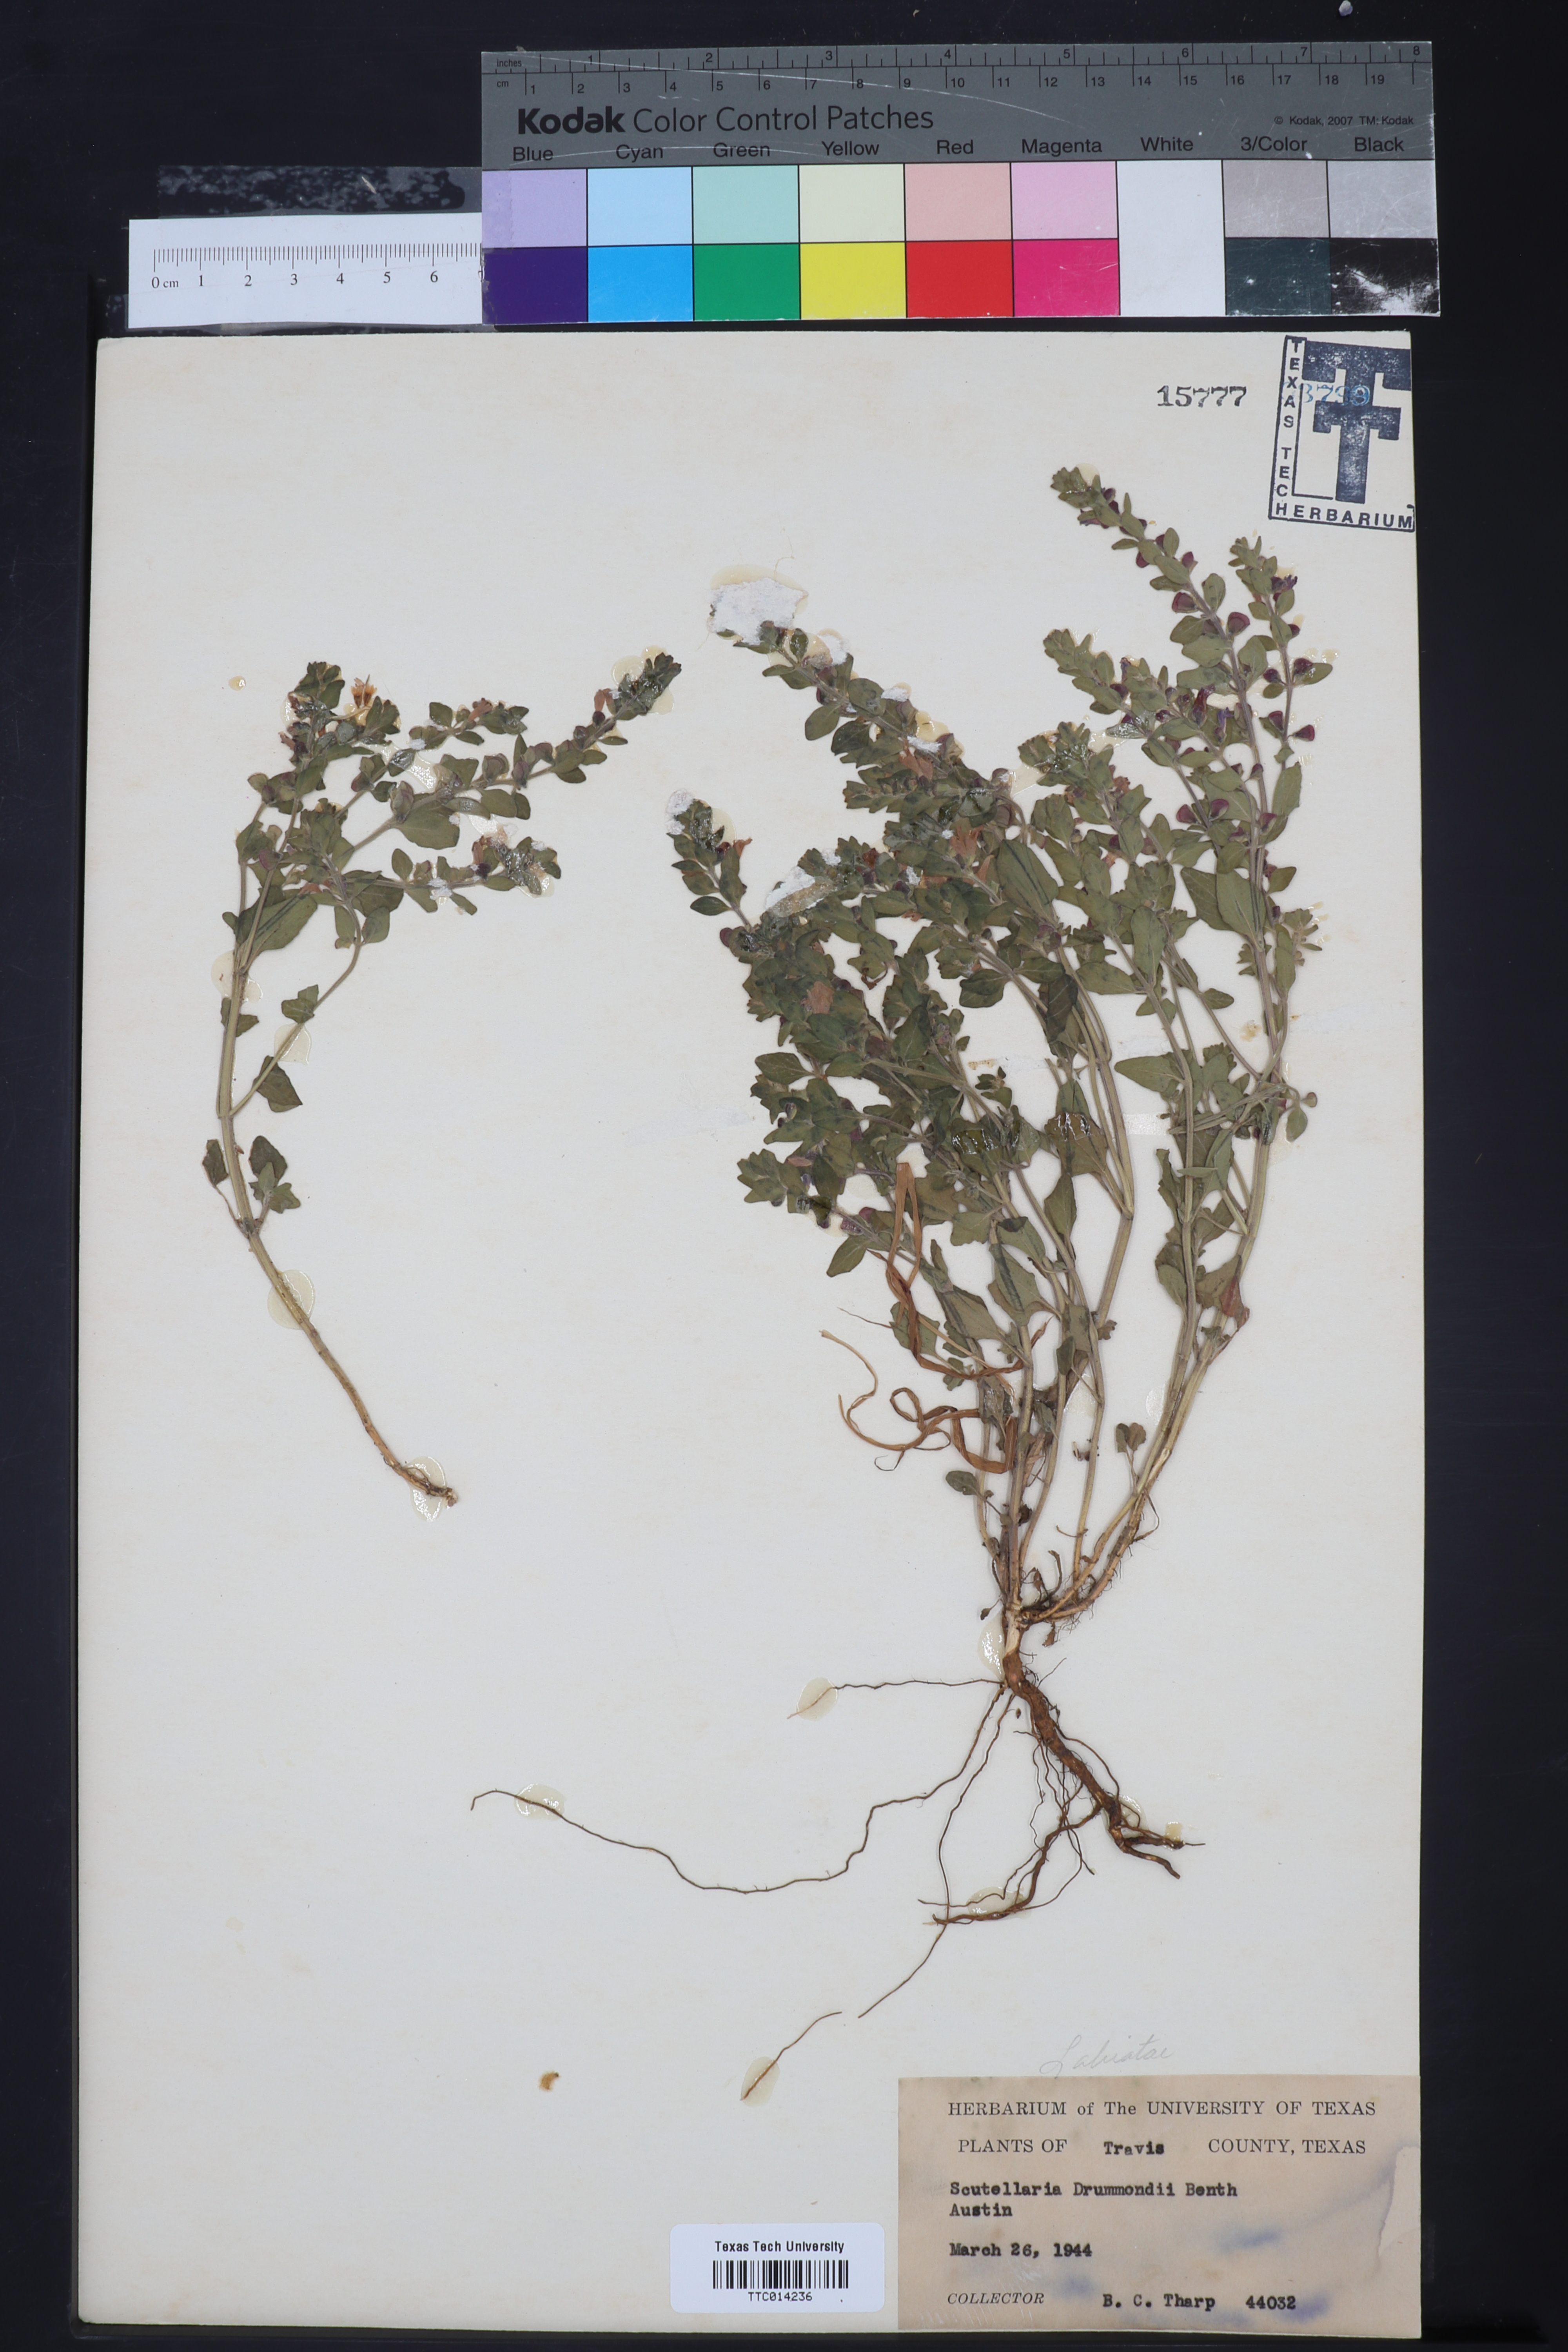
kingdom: Plantae
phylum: Tracheophyta
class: Magnoliopsida
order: Lamiales
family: Lamiaceae
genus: Scutellaria
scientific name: Scutellaria drummondii
